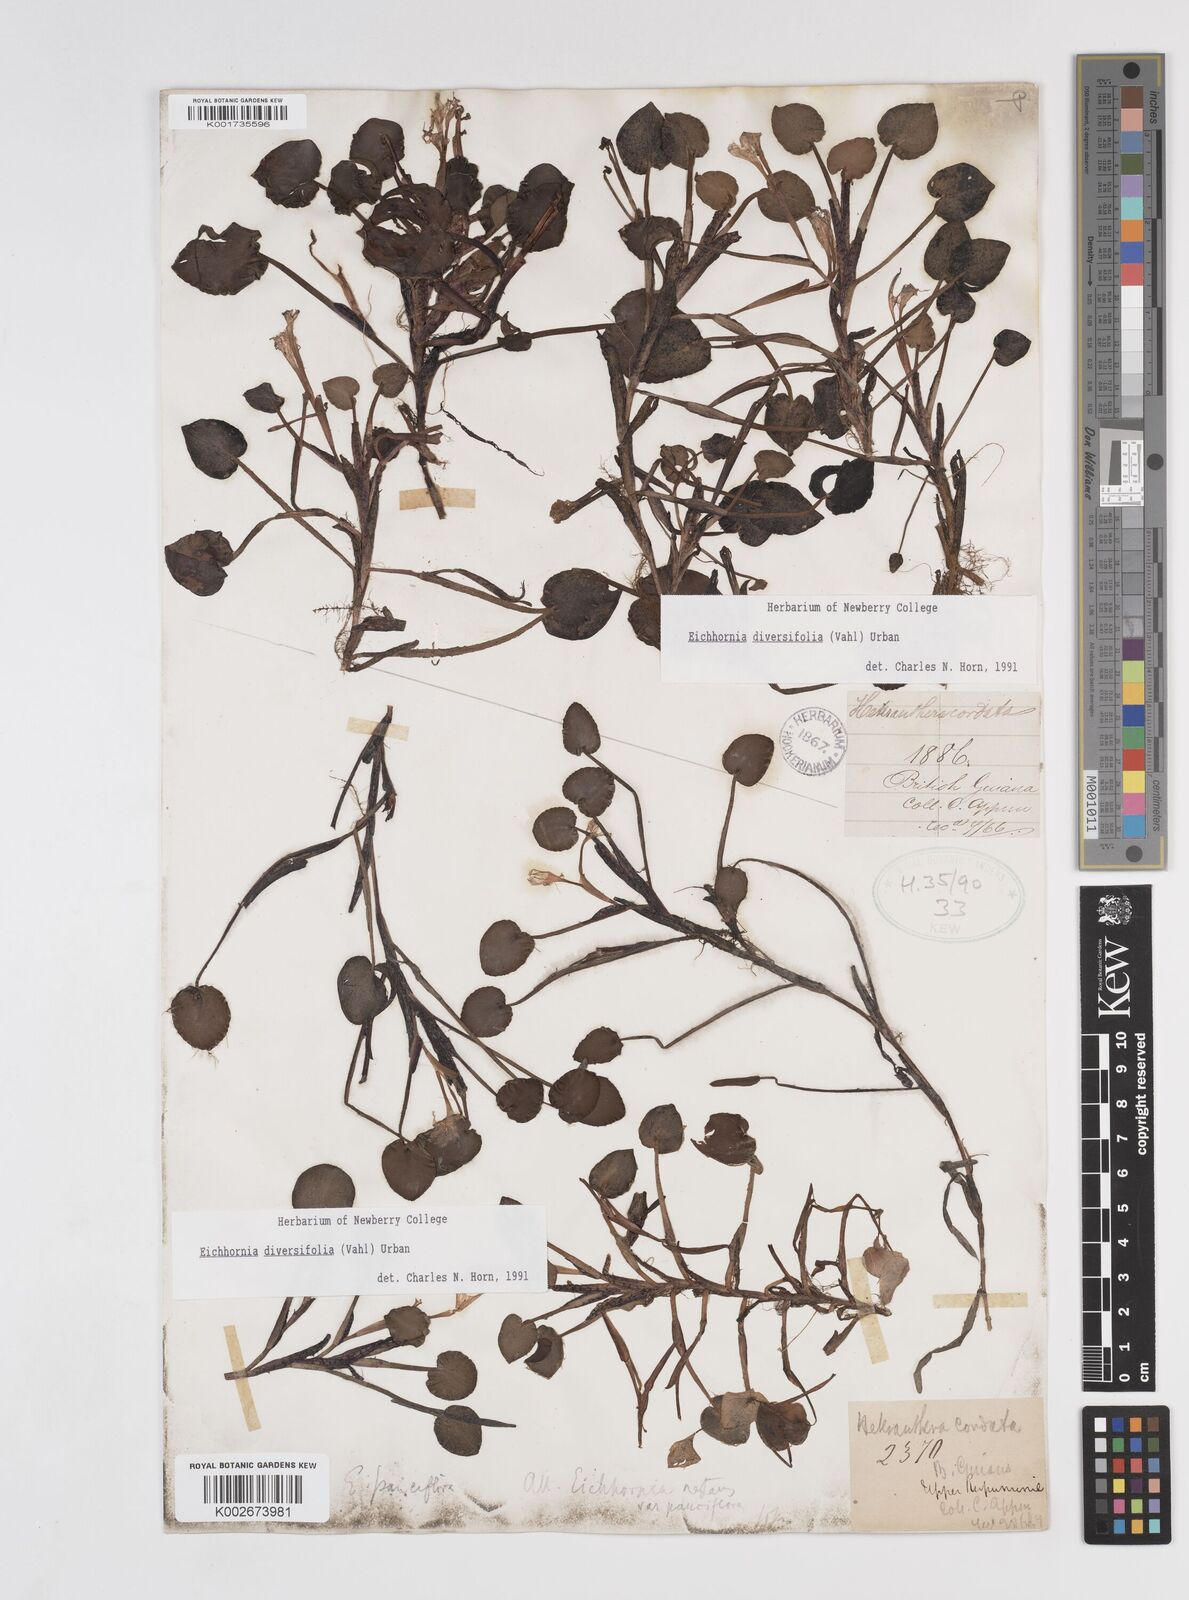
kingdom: Plantae
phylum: Tracheophyta
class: Liliopsida
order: Commelinales
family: Pontederiaceae
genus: Pontederia
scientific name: Pontederia diversifolia
